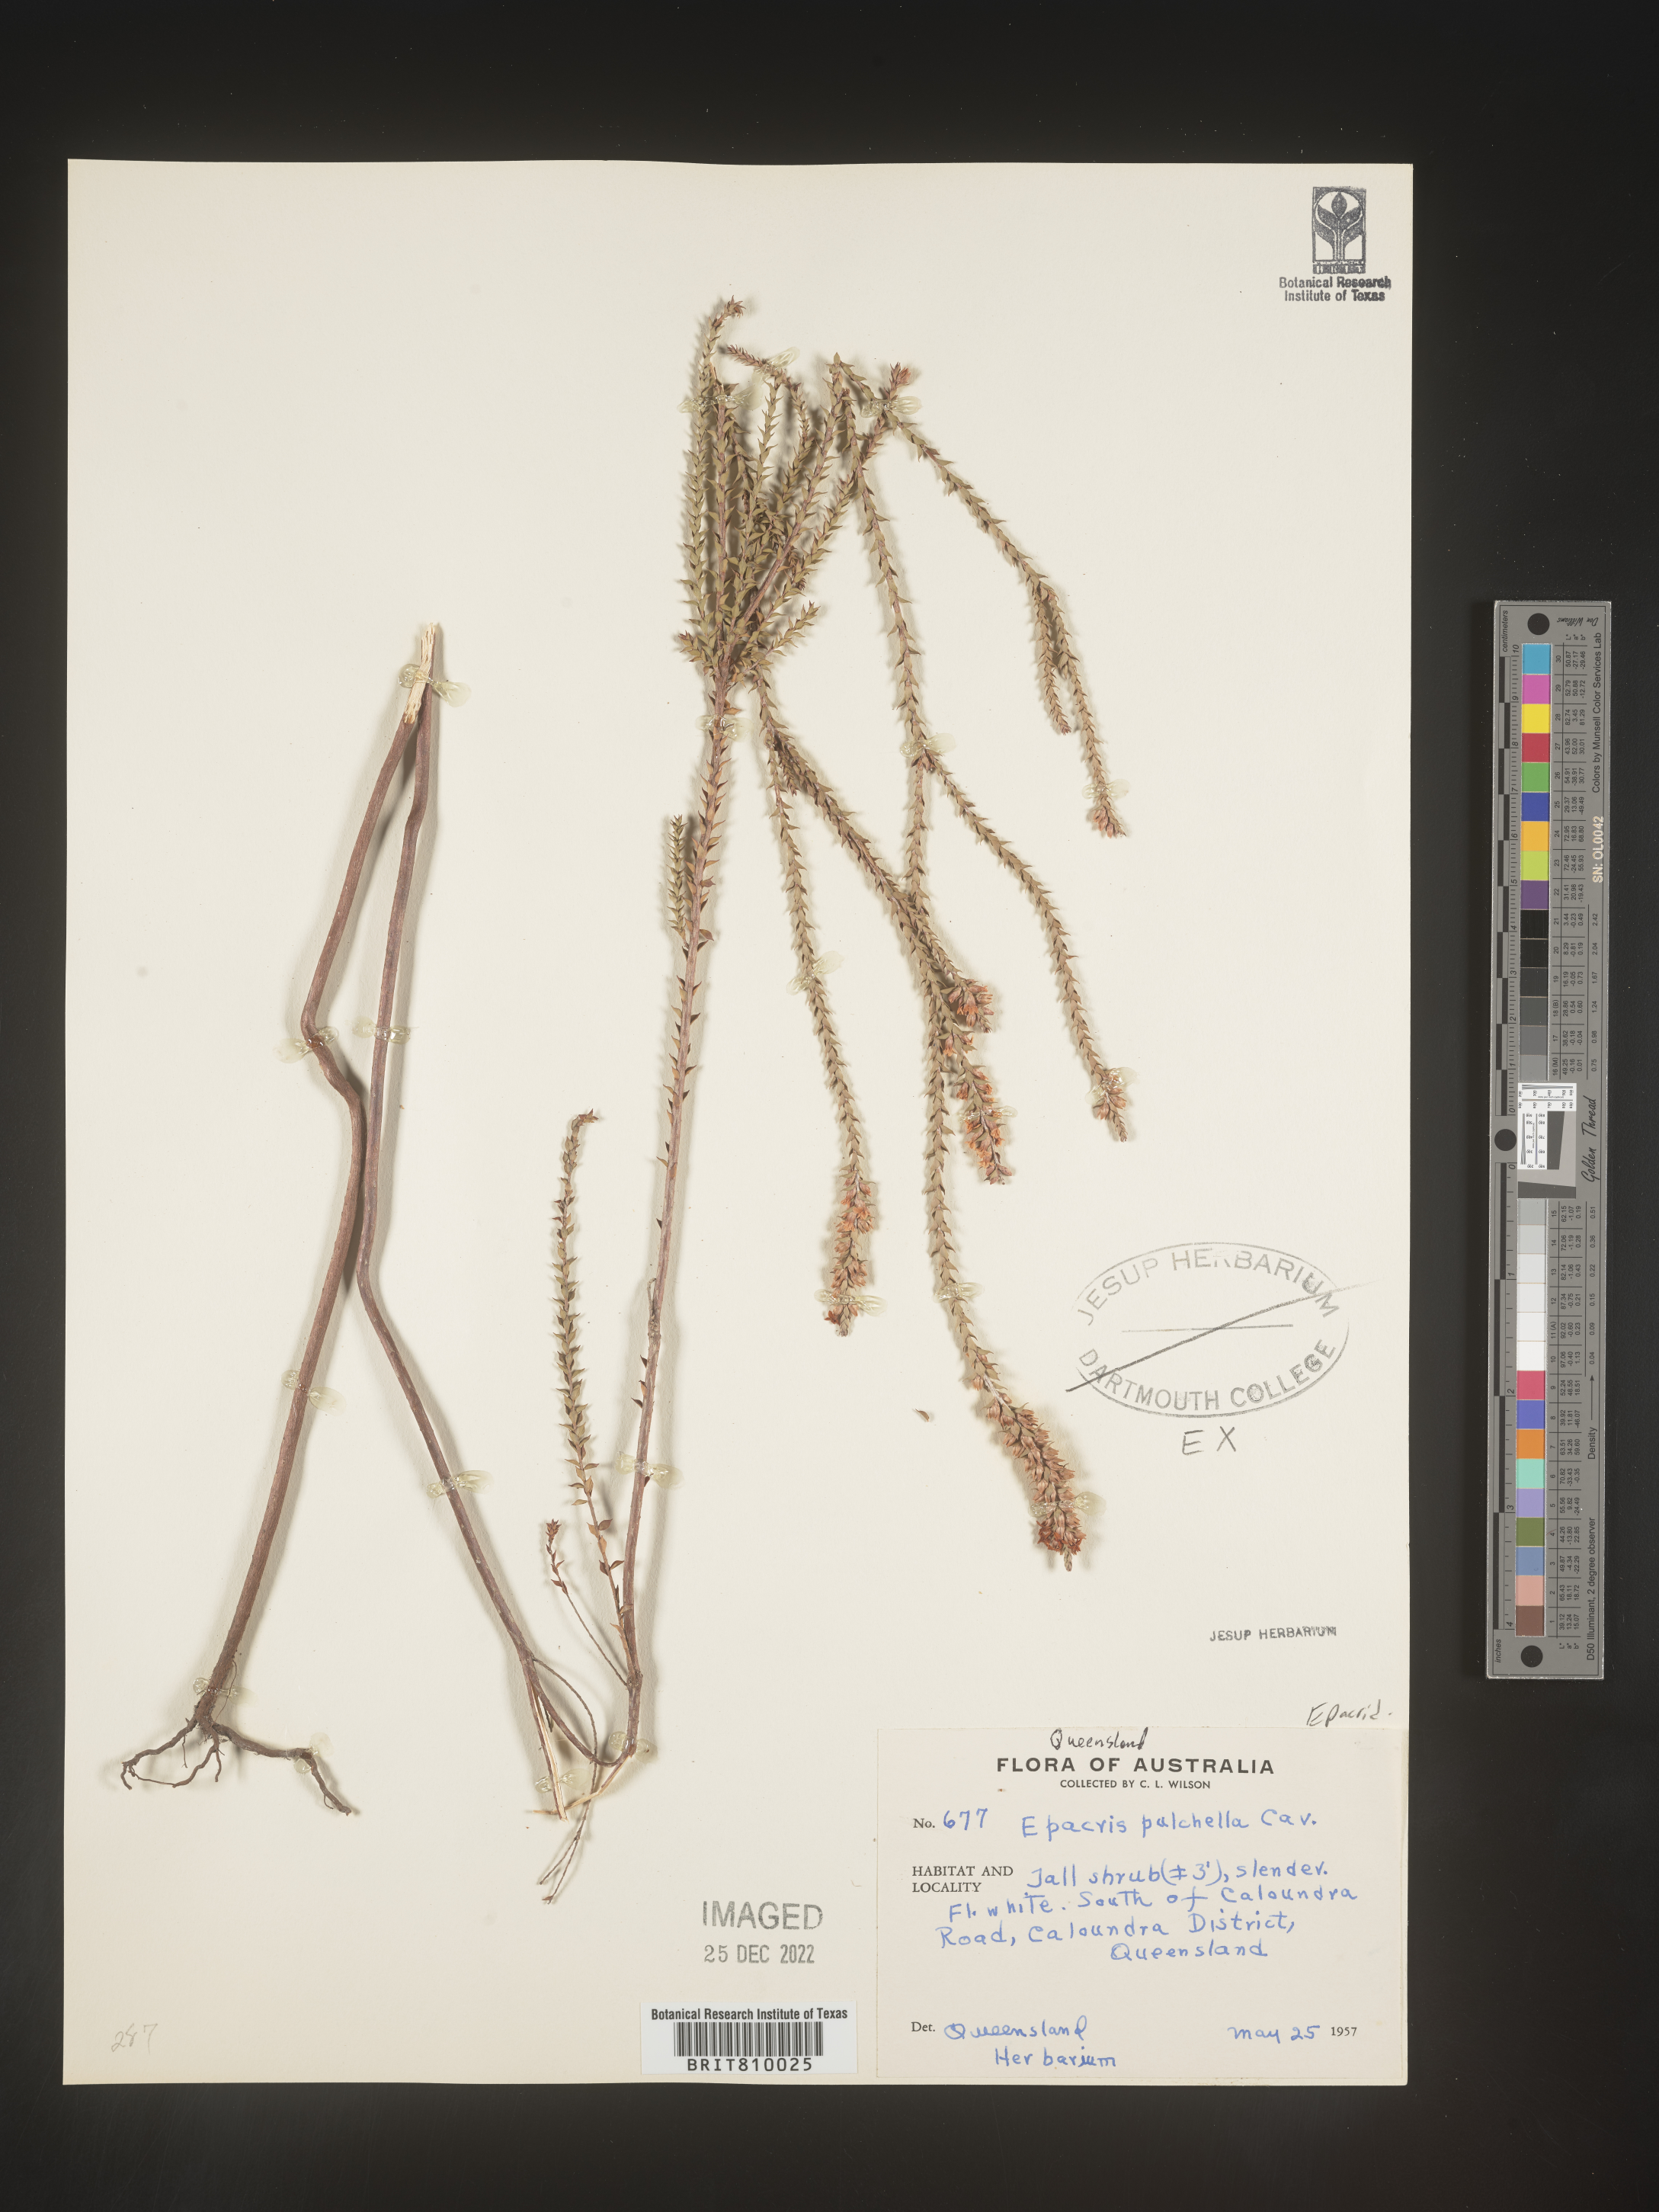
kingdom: Plantae
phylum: Tracheophyta
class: Magnoliopsida
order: Ericales
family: Ericaceae
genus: Epacris
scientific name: Epacris
